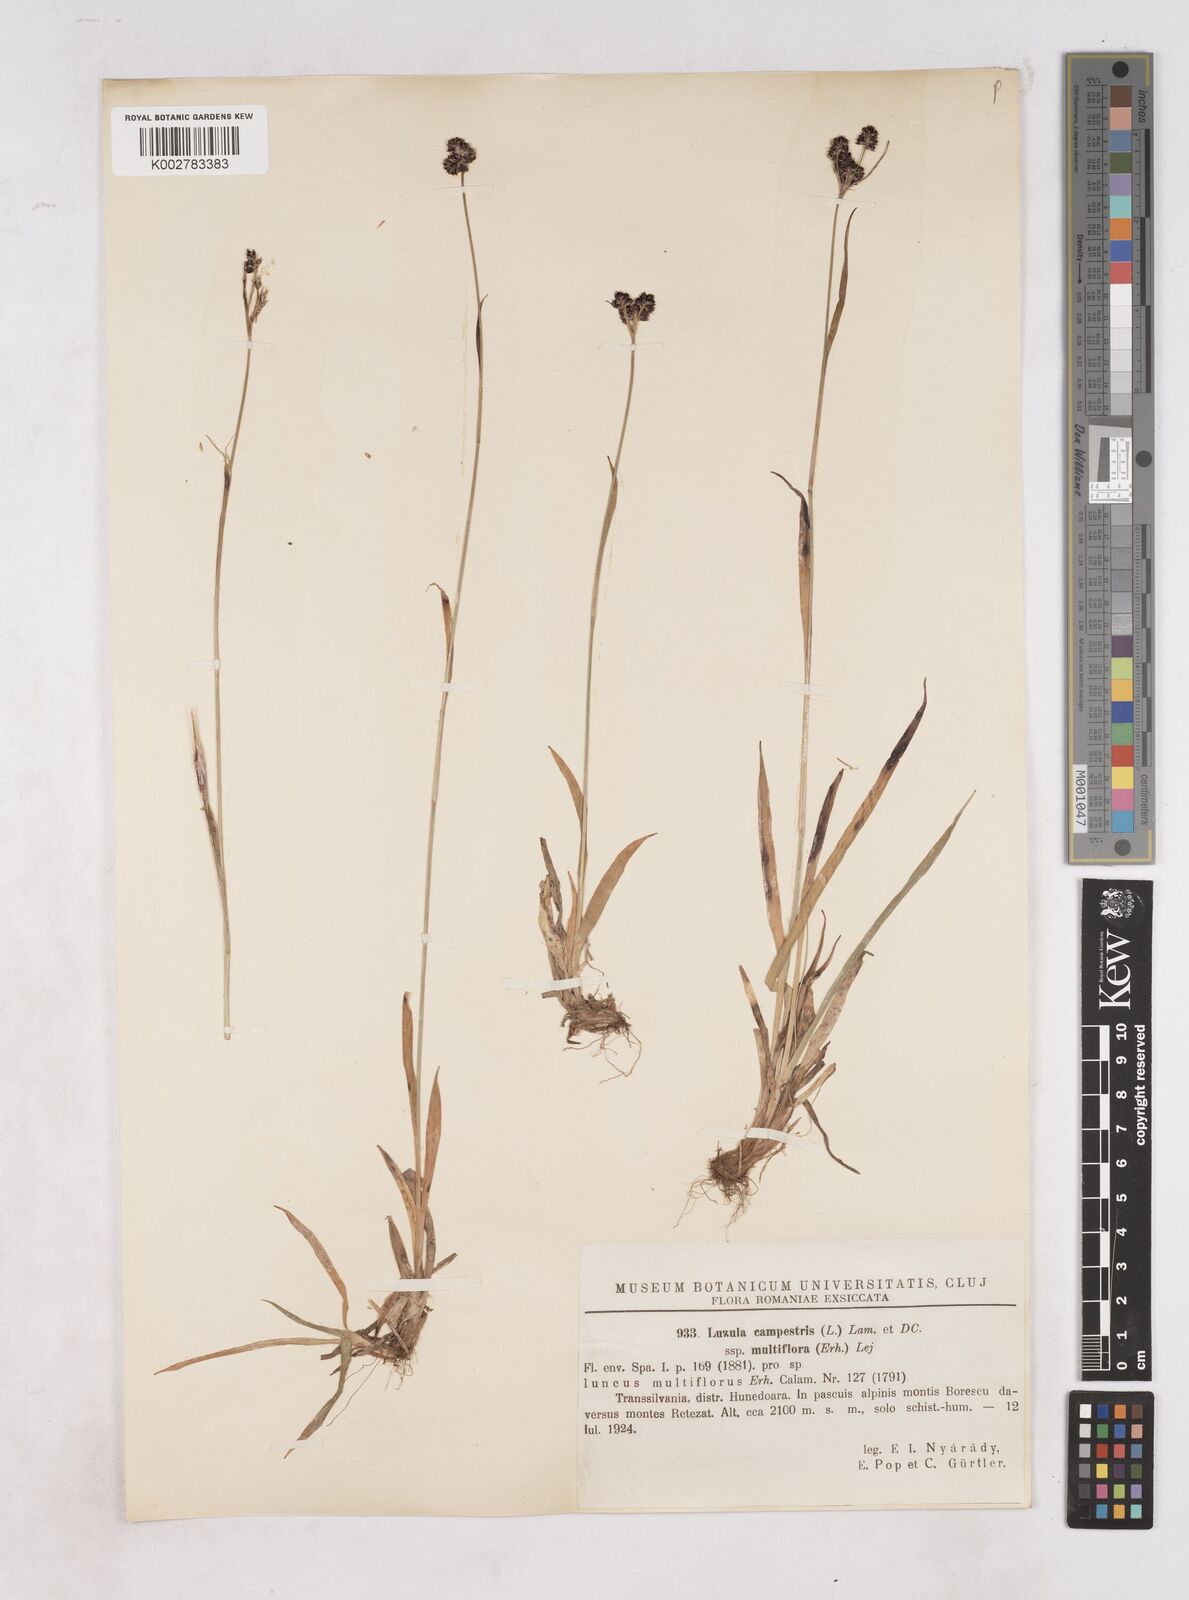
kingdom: Plantae
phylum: Tracheophyta
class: Liliopsida
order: Poales
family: Juncaceae
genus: Luzula
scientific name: Luzula multiflora
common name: Heath wood-rush
